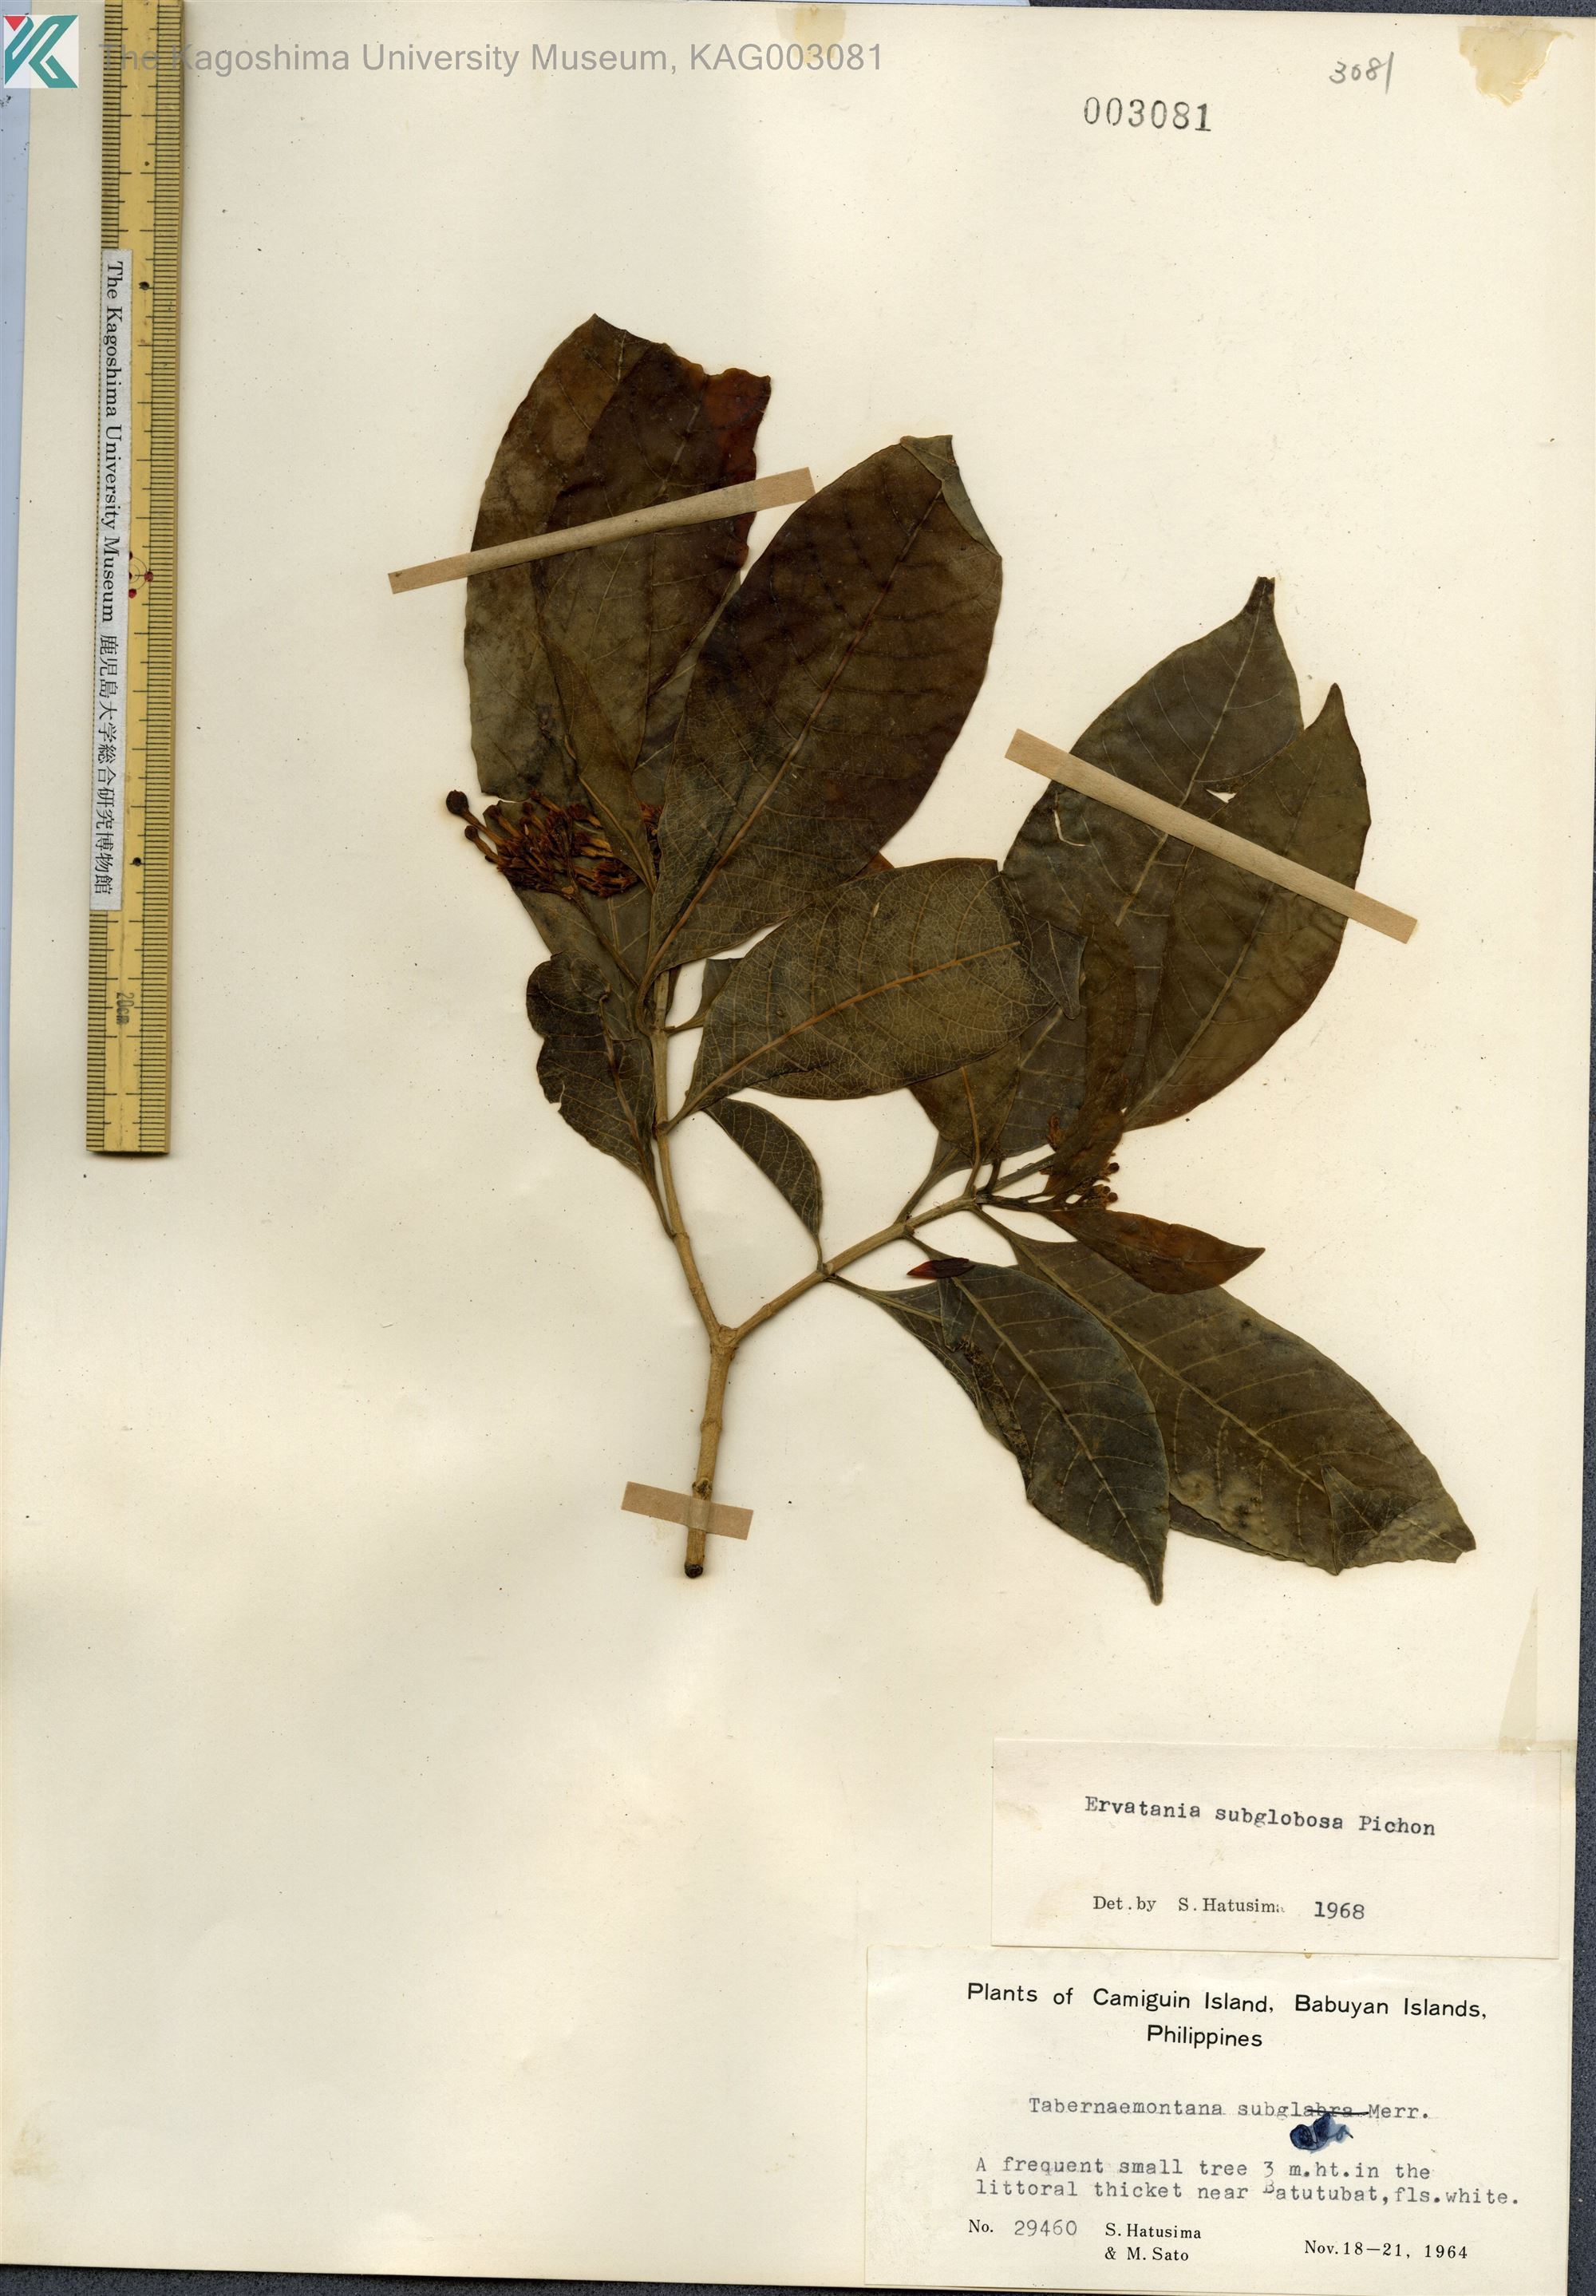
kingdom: Plantae
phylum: Tracheophyta
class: Magnoliopsida
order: Gentianales
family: Apocynaceae
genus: Tabernaemontana
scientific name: Tabernaemontana pandacaqui
